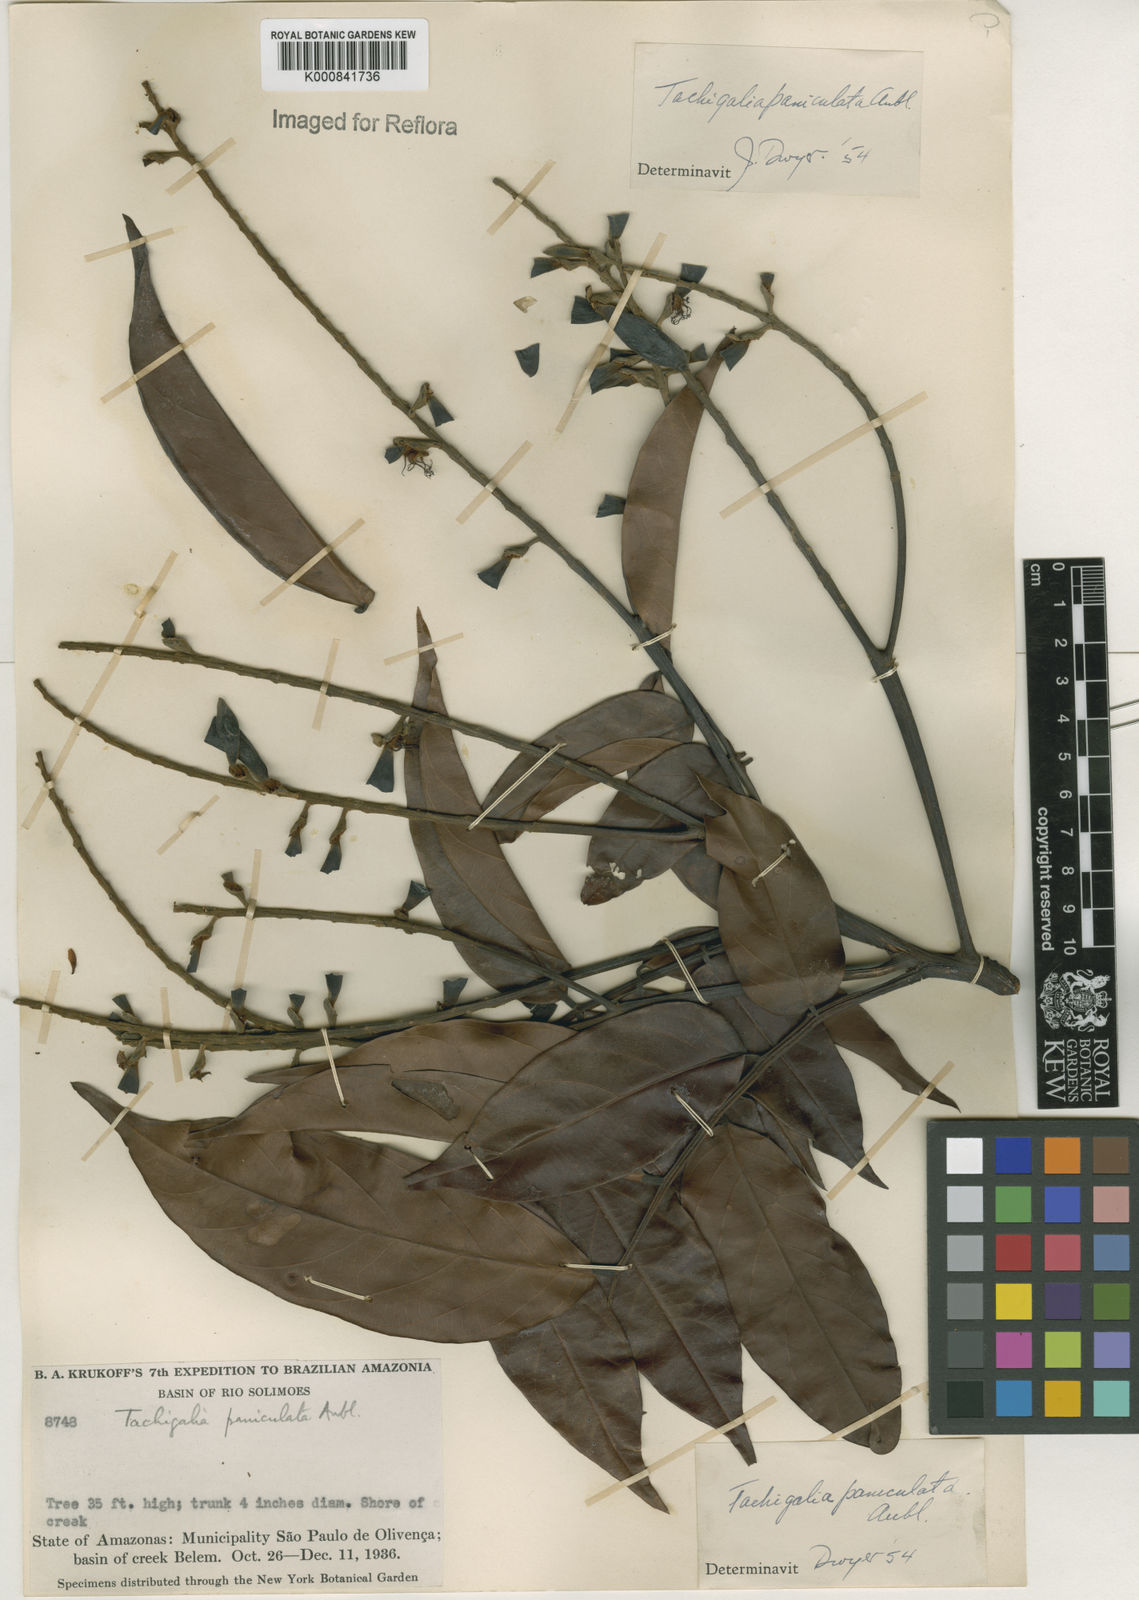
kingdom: Plantae
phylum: Tracheophyta
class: Magnoliopsida
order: Fabales
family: Fabaceae
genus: Tachigali
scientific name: Tachigali paniculata
